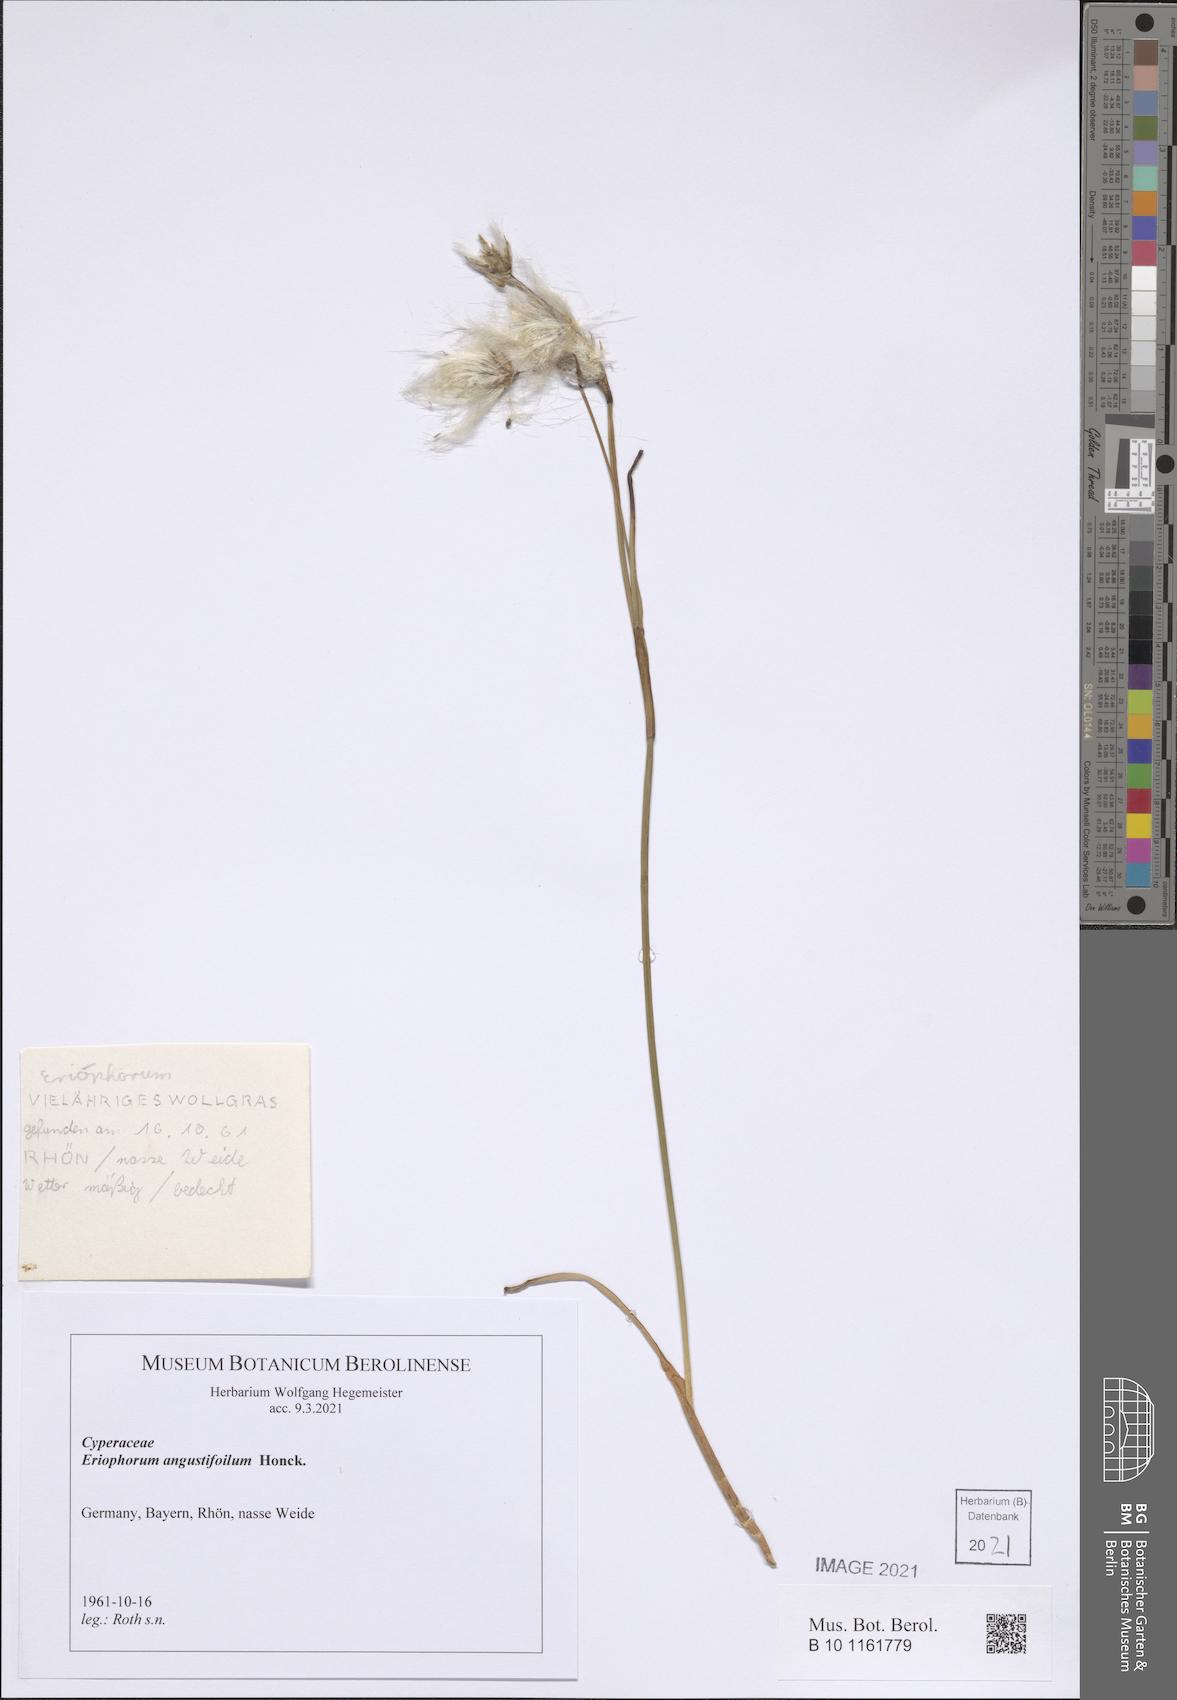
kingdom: Plantae
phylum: Tracheophyta
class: Liliopsida
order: Poales
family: Cyperaceae
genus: Eriophorum
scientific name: Eriophorum angustifolium
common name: Common cottongrass
